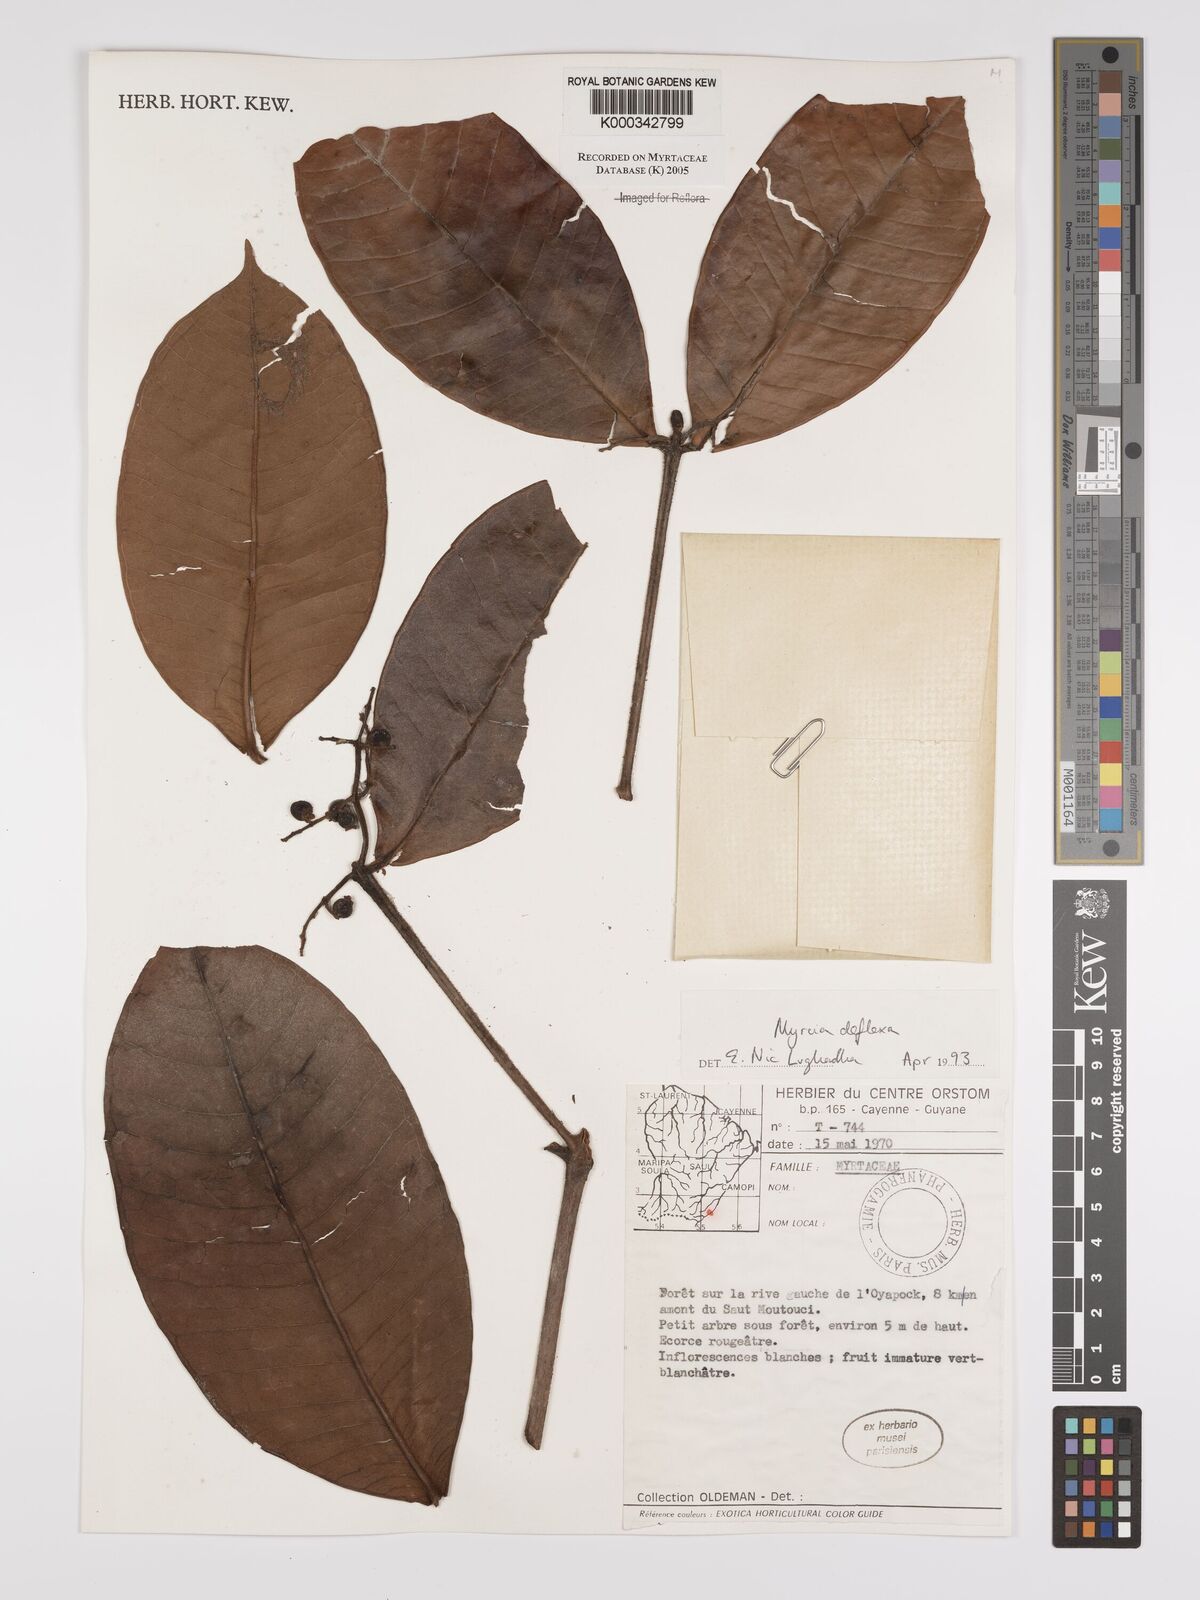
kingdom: Plantae
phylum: Tracheophyta
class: Magnoliopsida
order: Myrtales
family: Myrtaceae
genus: Myrcia
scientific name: Myrcia deflexa
